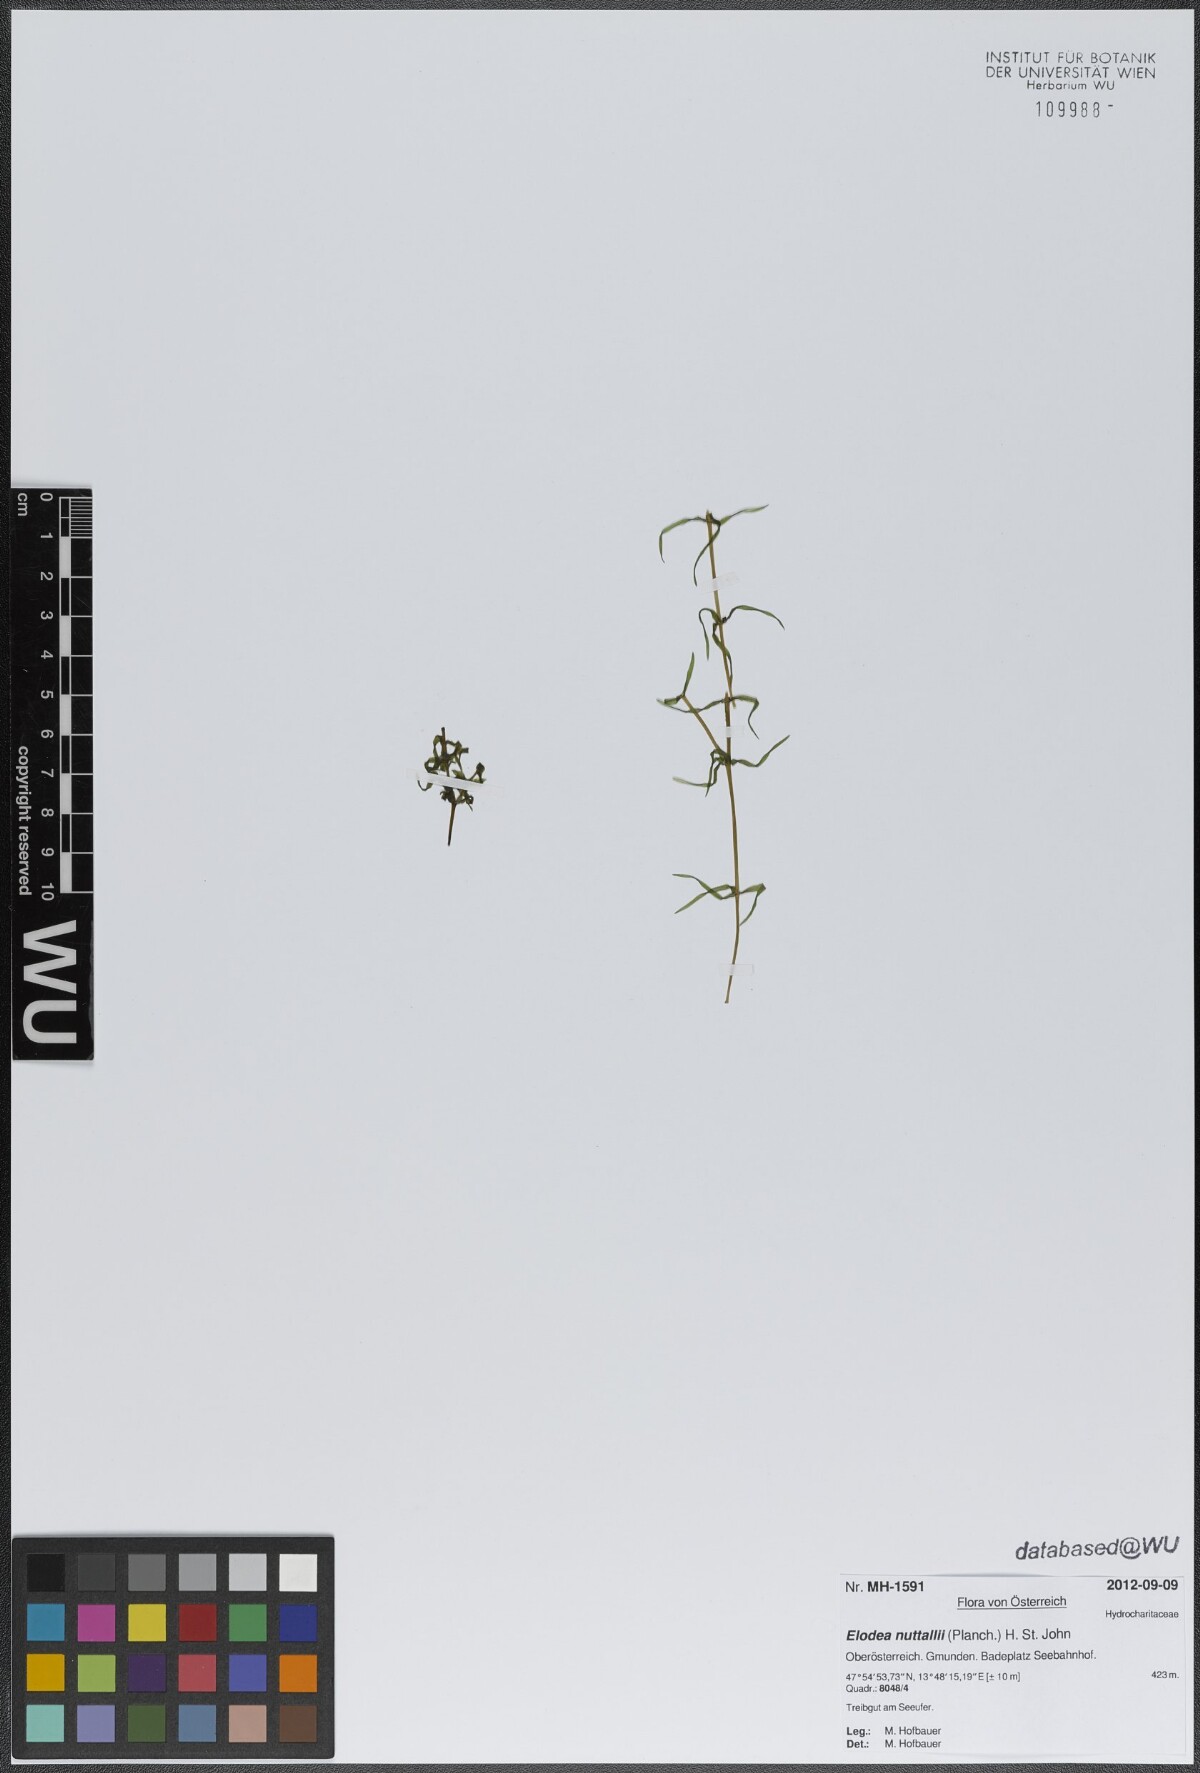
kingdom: Plantae
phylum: Tracheophyta
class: Liliopsida
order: Alismatales
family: Hydrocharitaceae
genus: Elodea
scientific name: Elodea nuttallii
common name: Nuttall's waterweed
